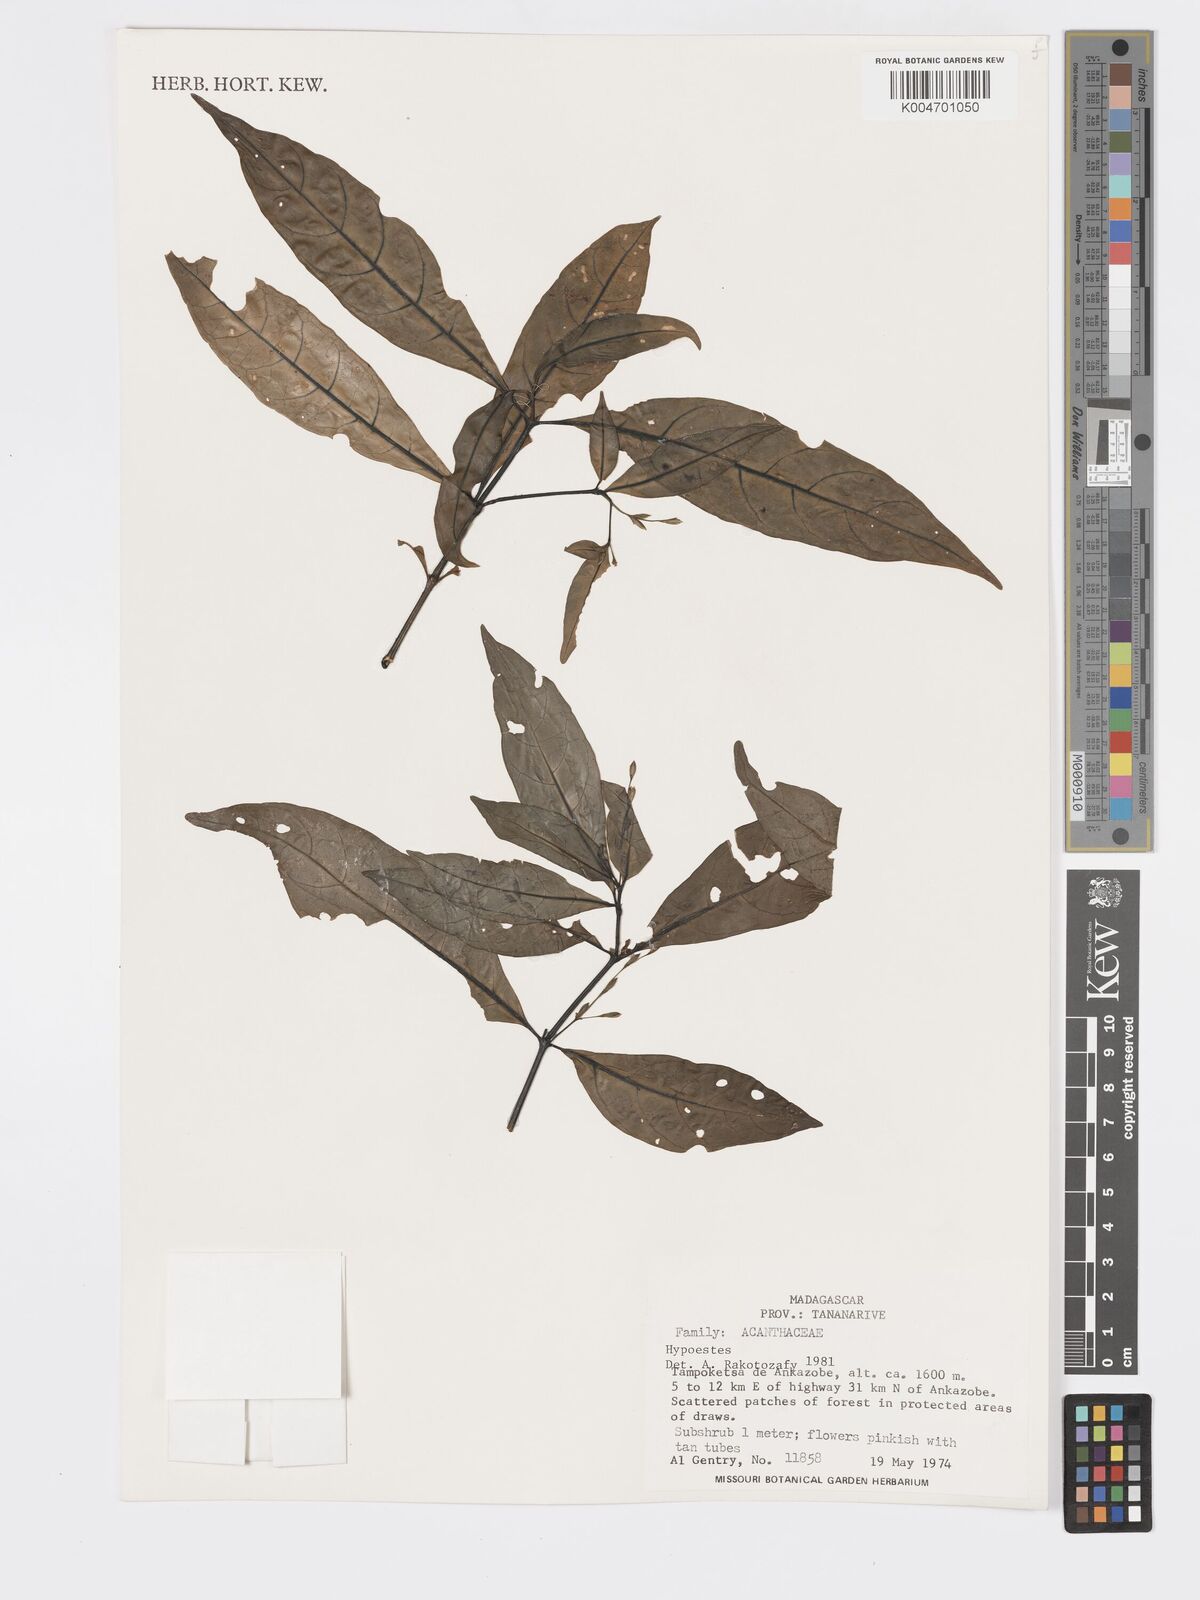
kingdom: Plantae
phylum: Tracheophyta
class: Magnoliopsida
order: Lamiales
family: Acanthaceae
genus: Hypoestes
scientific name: Hypoestes
